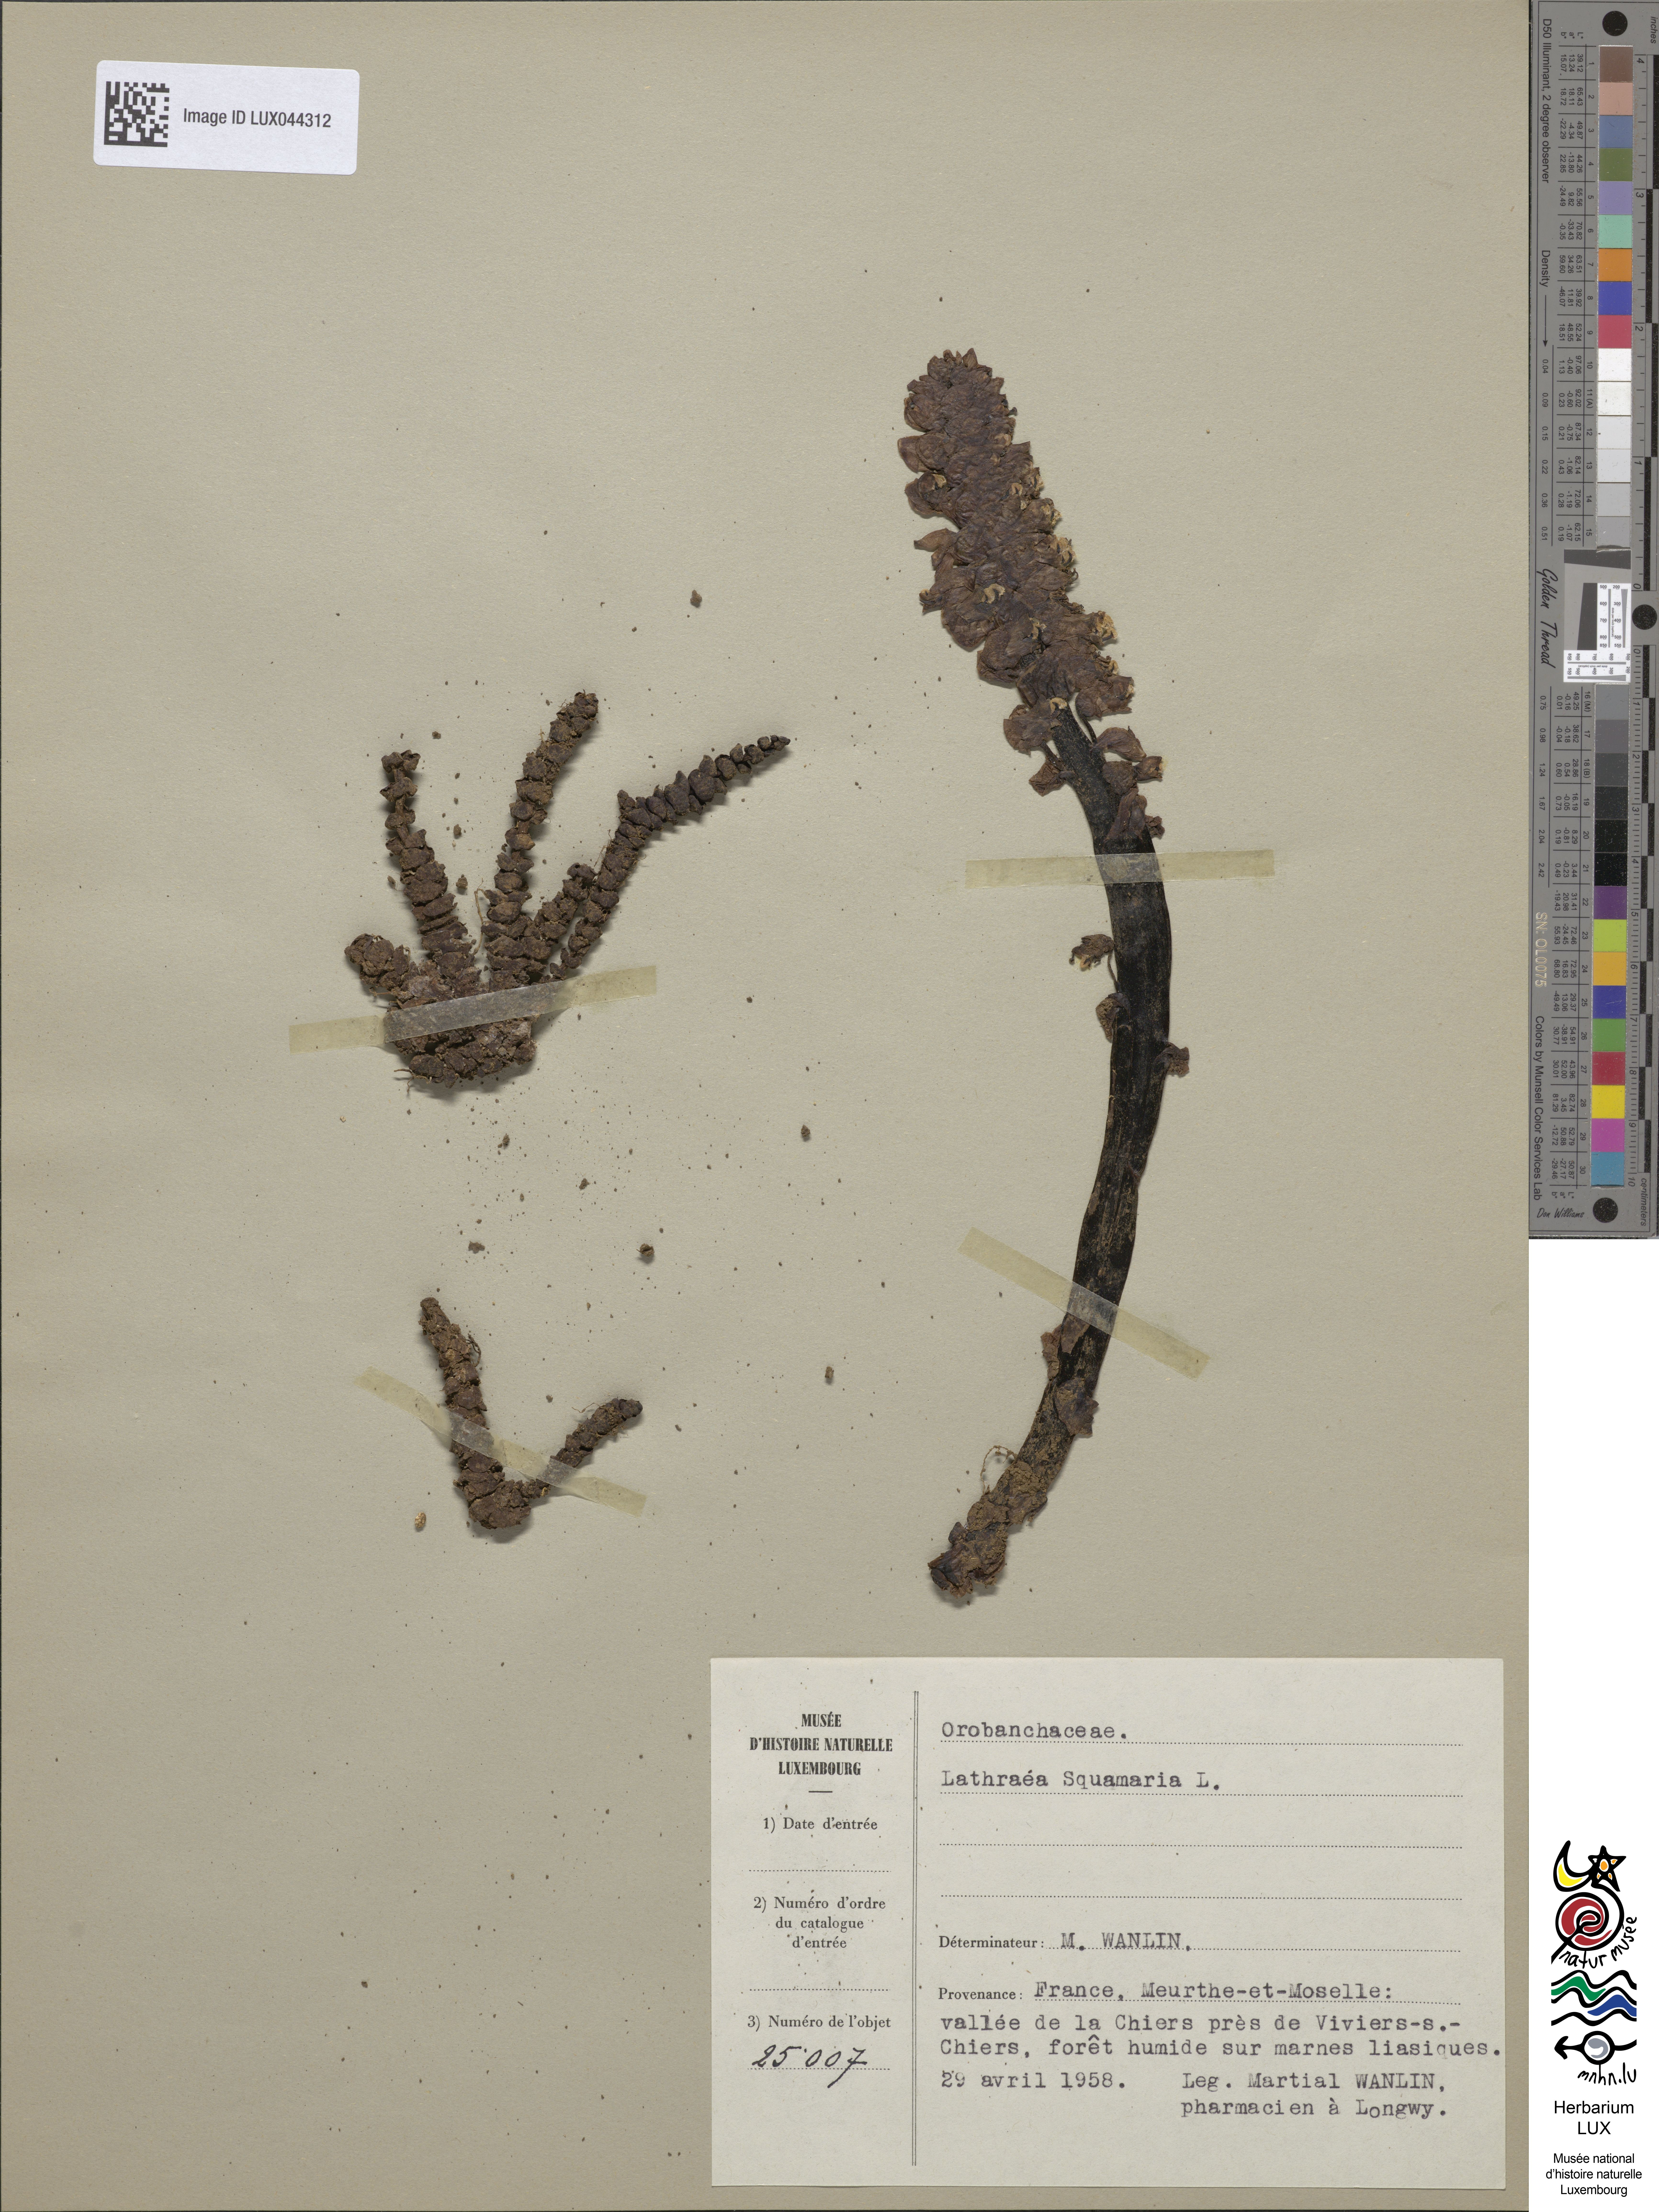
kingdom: Plantae
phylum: Tracheophyta
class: Magnoliopsida
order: Lamiales
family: Orobanchaceae
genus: Lathraea
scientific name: Lathraea squamaria
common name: Toothwort
